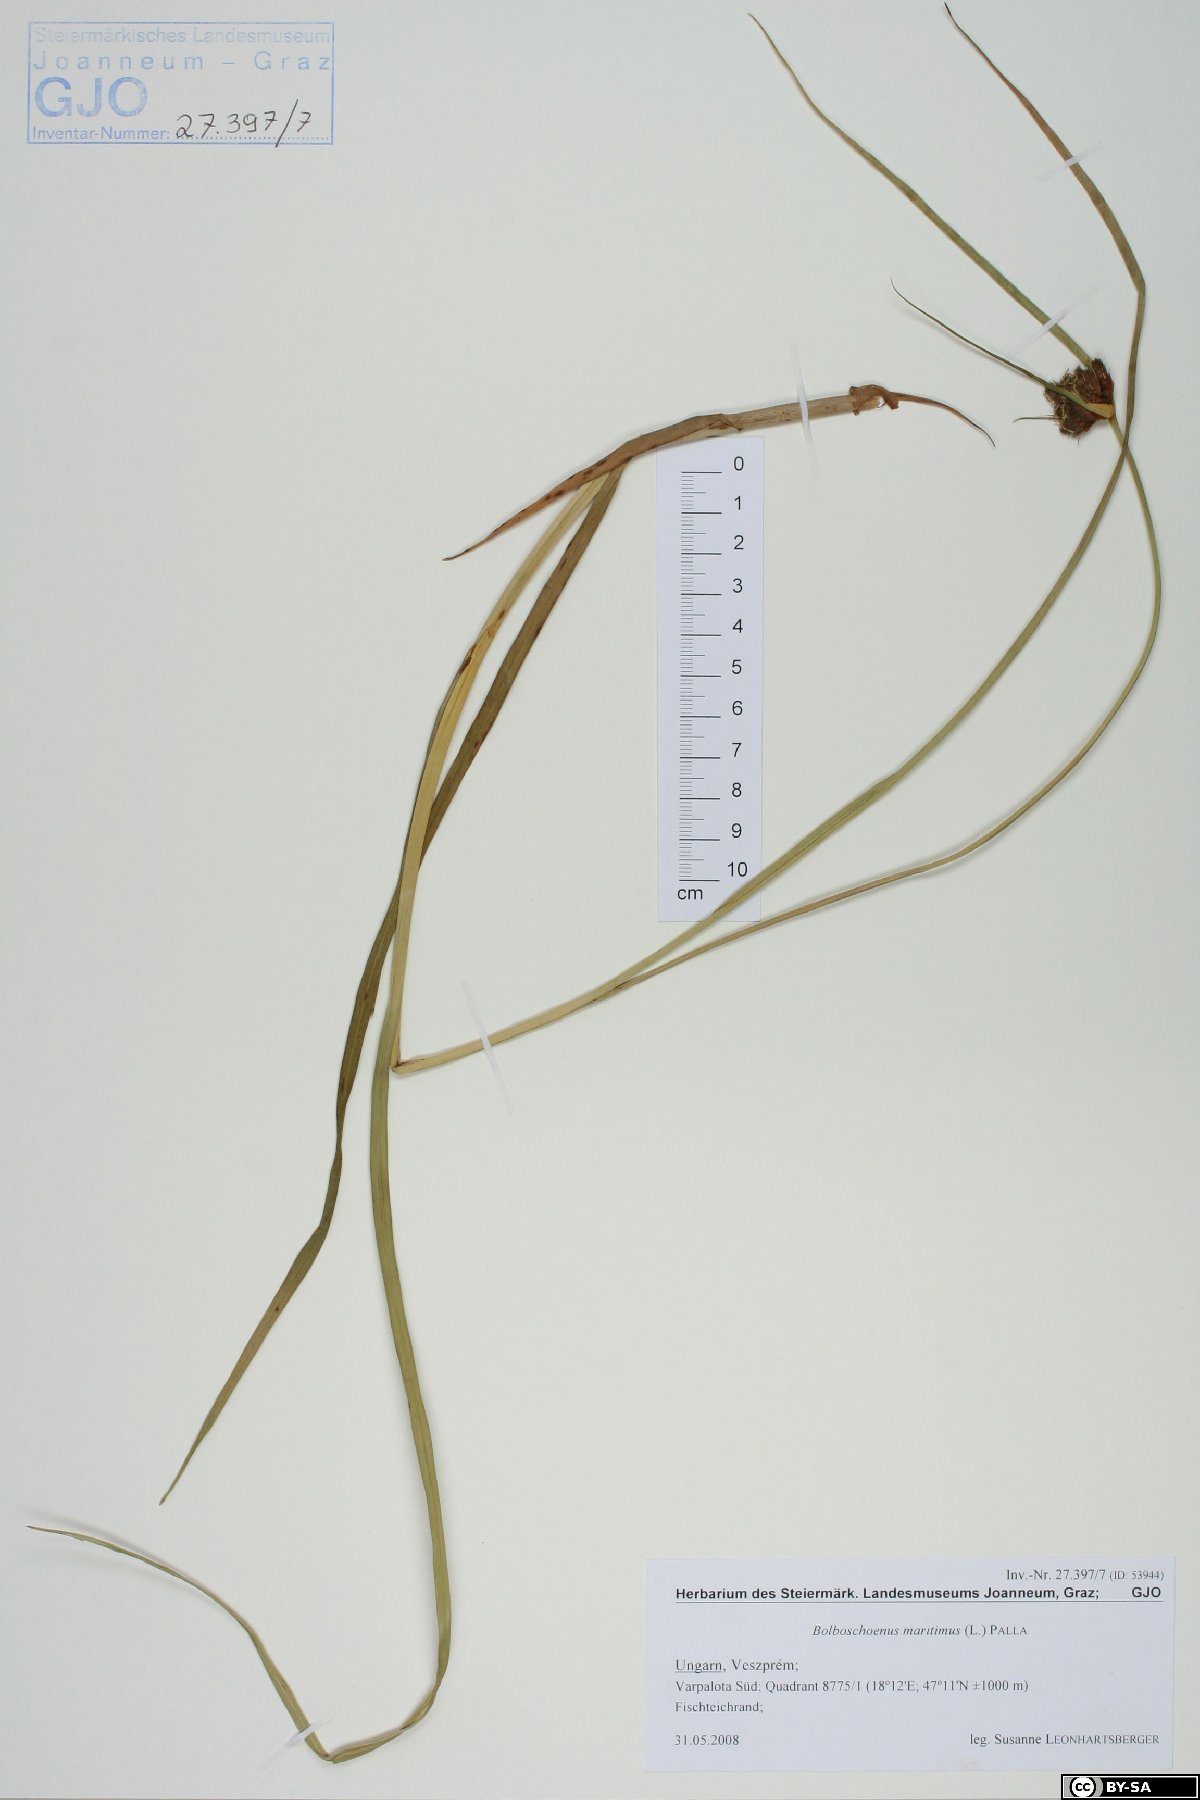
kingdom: Plantae
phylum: Tracheophyta
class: Liliopsida
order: Poales
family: Cyperaceae
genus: Bolboschoenus
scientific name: Bolboschoenus maritimus
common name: Sea club-rush
